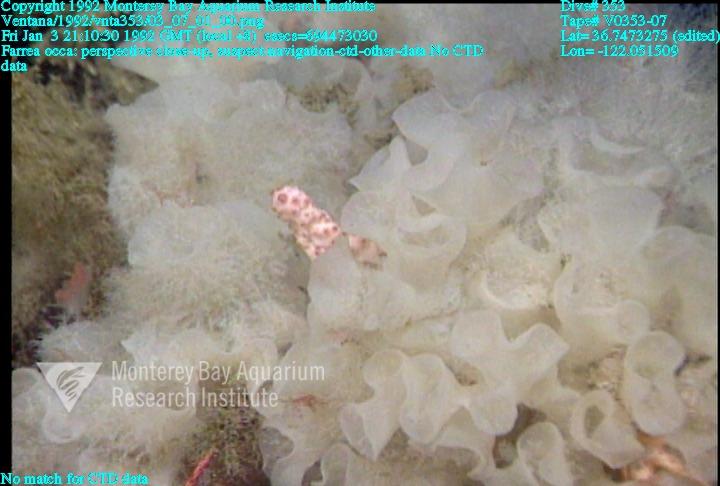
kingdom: Animalia
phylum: Porifera
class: Hexactinellida
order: Sceptrulophora
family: Farreidae
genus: Farrea
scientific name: Farrea occa
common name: Reversed glass sponge
